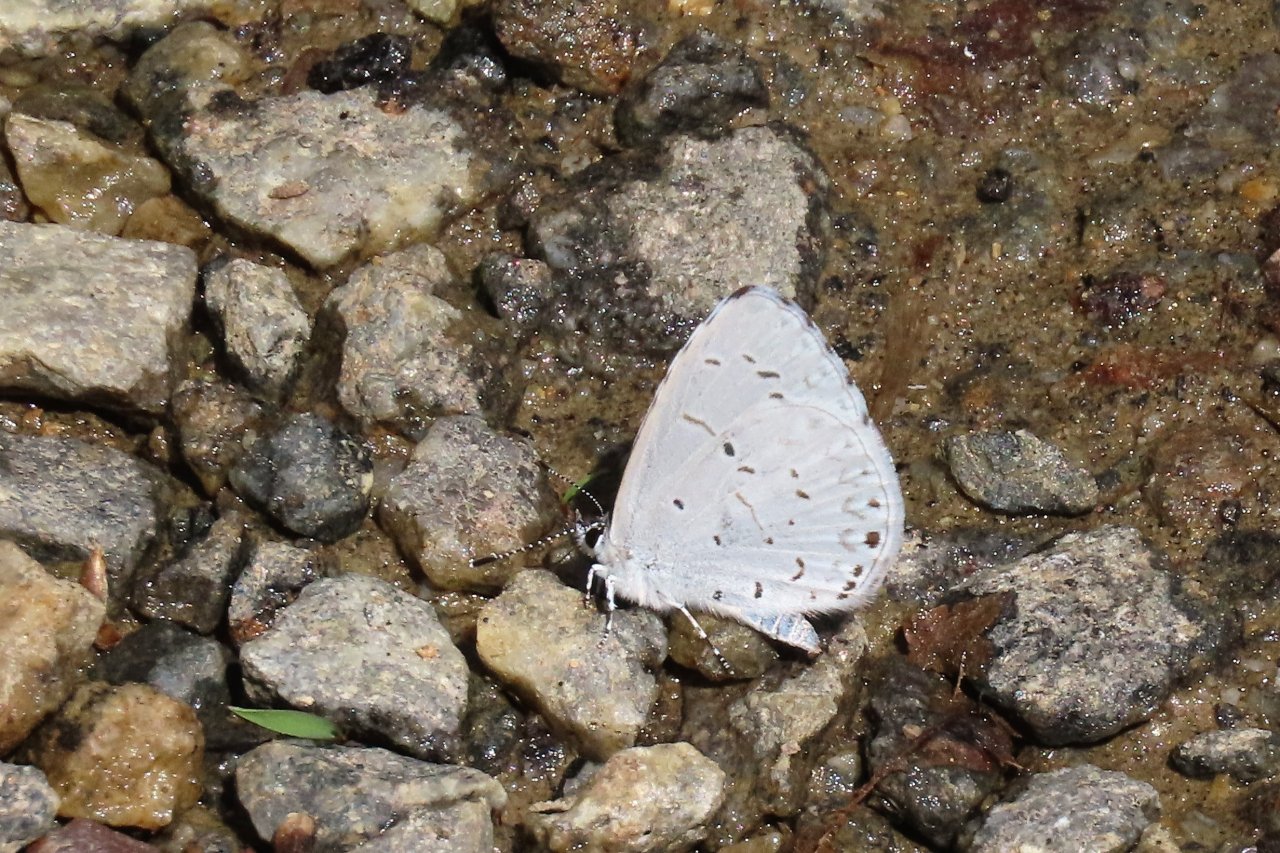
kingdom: Animalia
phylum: Arthropoda
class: Insecta
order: Lepidoptera
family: Lycaenidae
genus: Cyaniris
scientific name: Cyaniris neglecta
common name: Summer Azure
